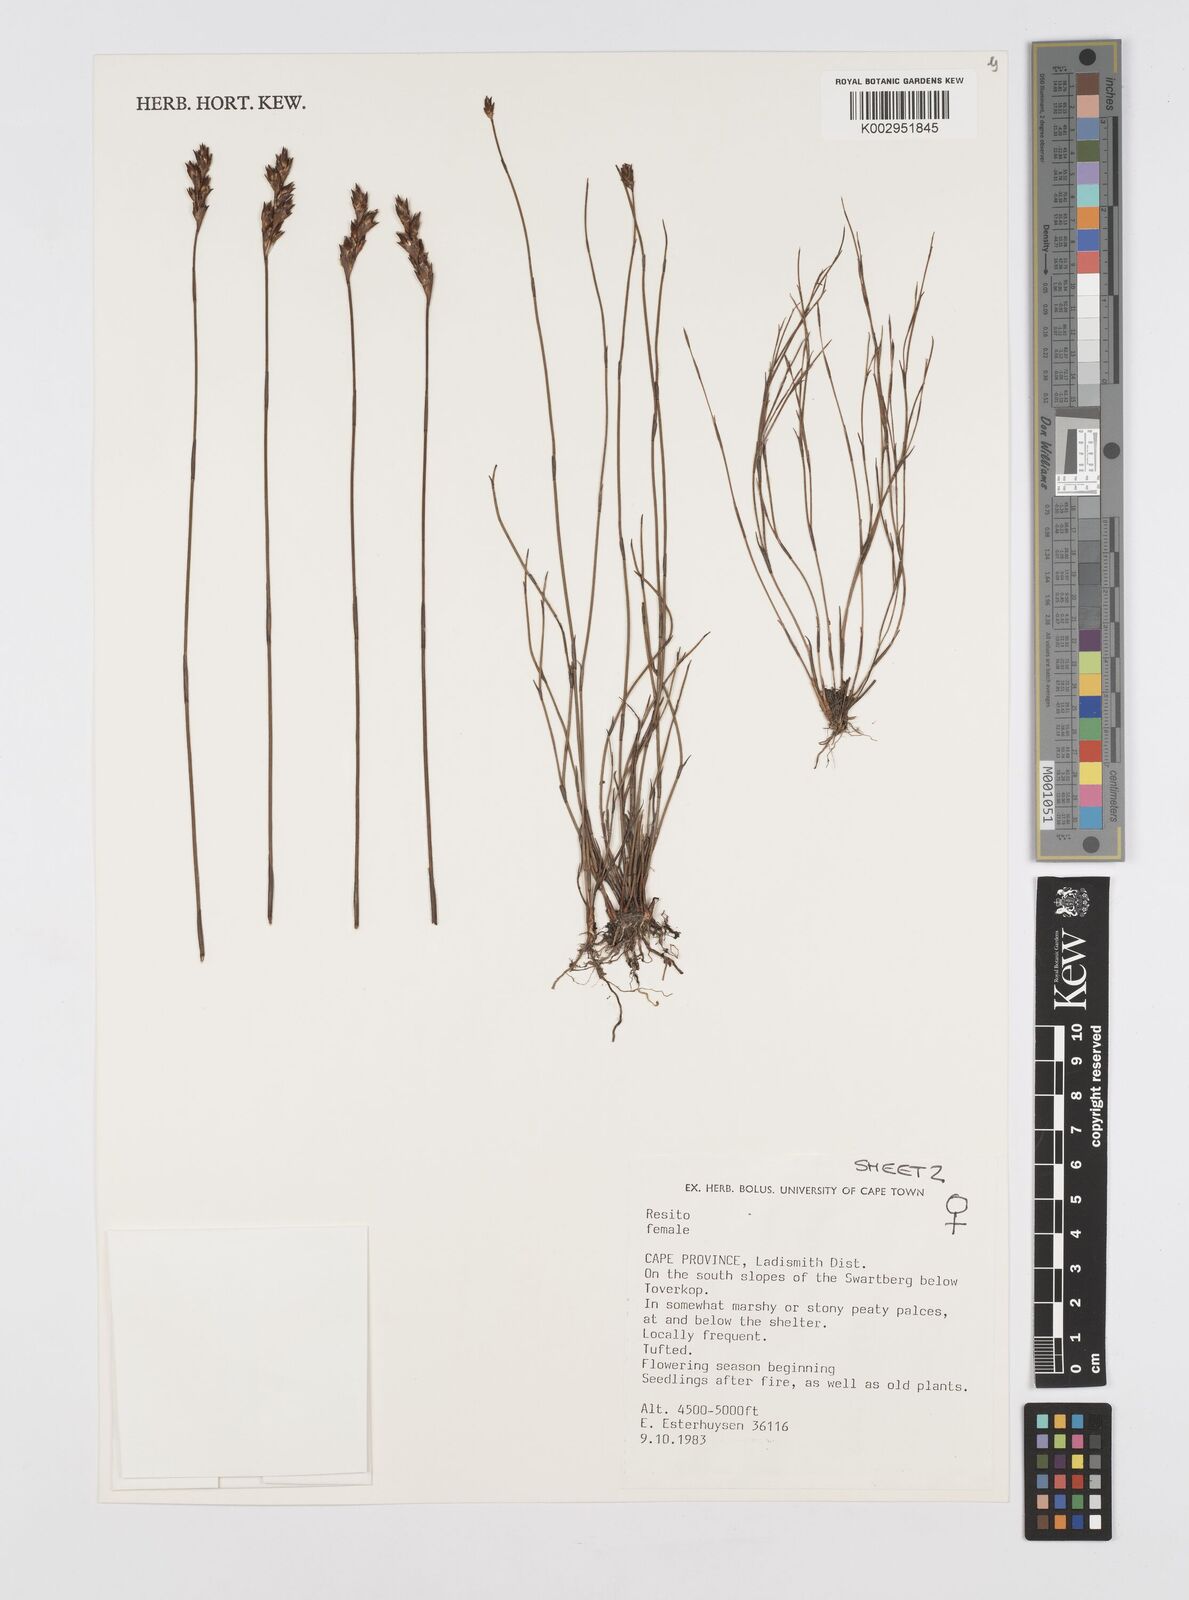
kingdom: Plantae
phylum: Tracheophyta
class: Liliopsida
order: Poales
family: Restionaceae
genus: Restio
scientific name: Restio
